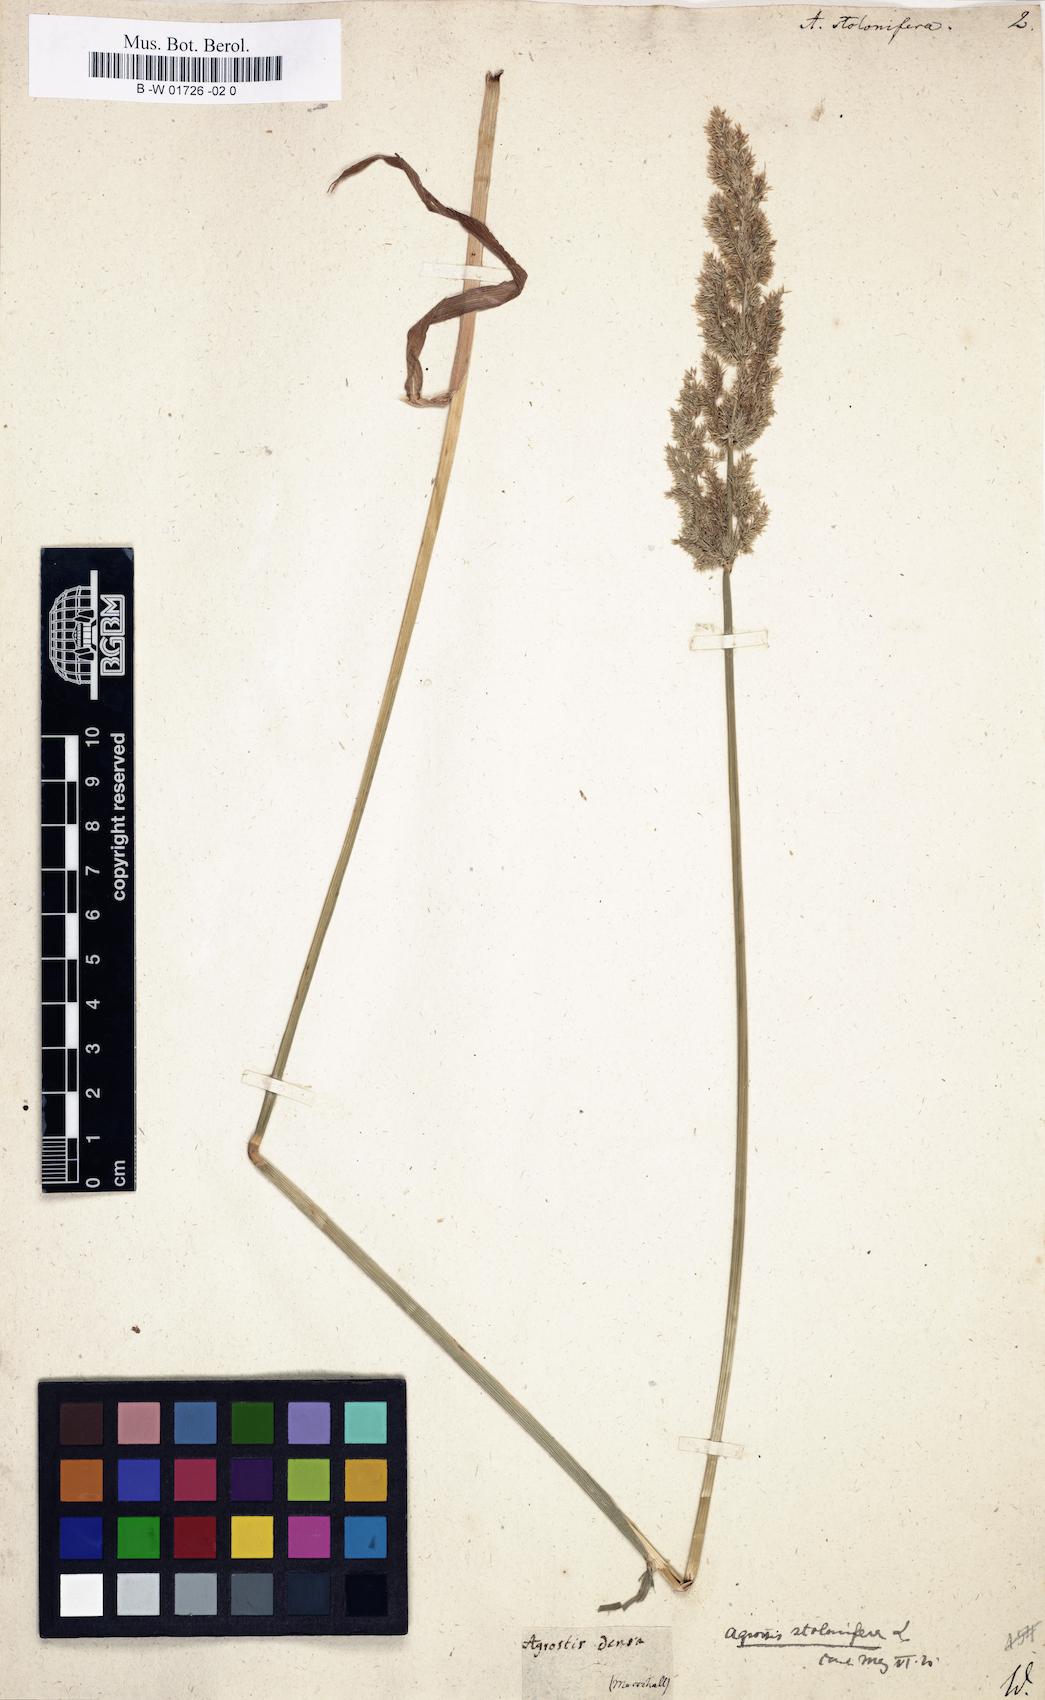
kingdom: Plantae
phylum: Tracheophyta
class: Liliopsida
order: Poales
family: Poaceae
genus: Agrostis
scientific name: Agrostis stolonifera
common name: Creeping bentgrass
